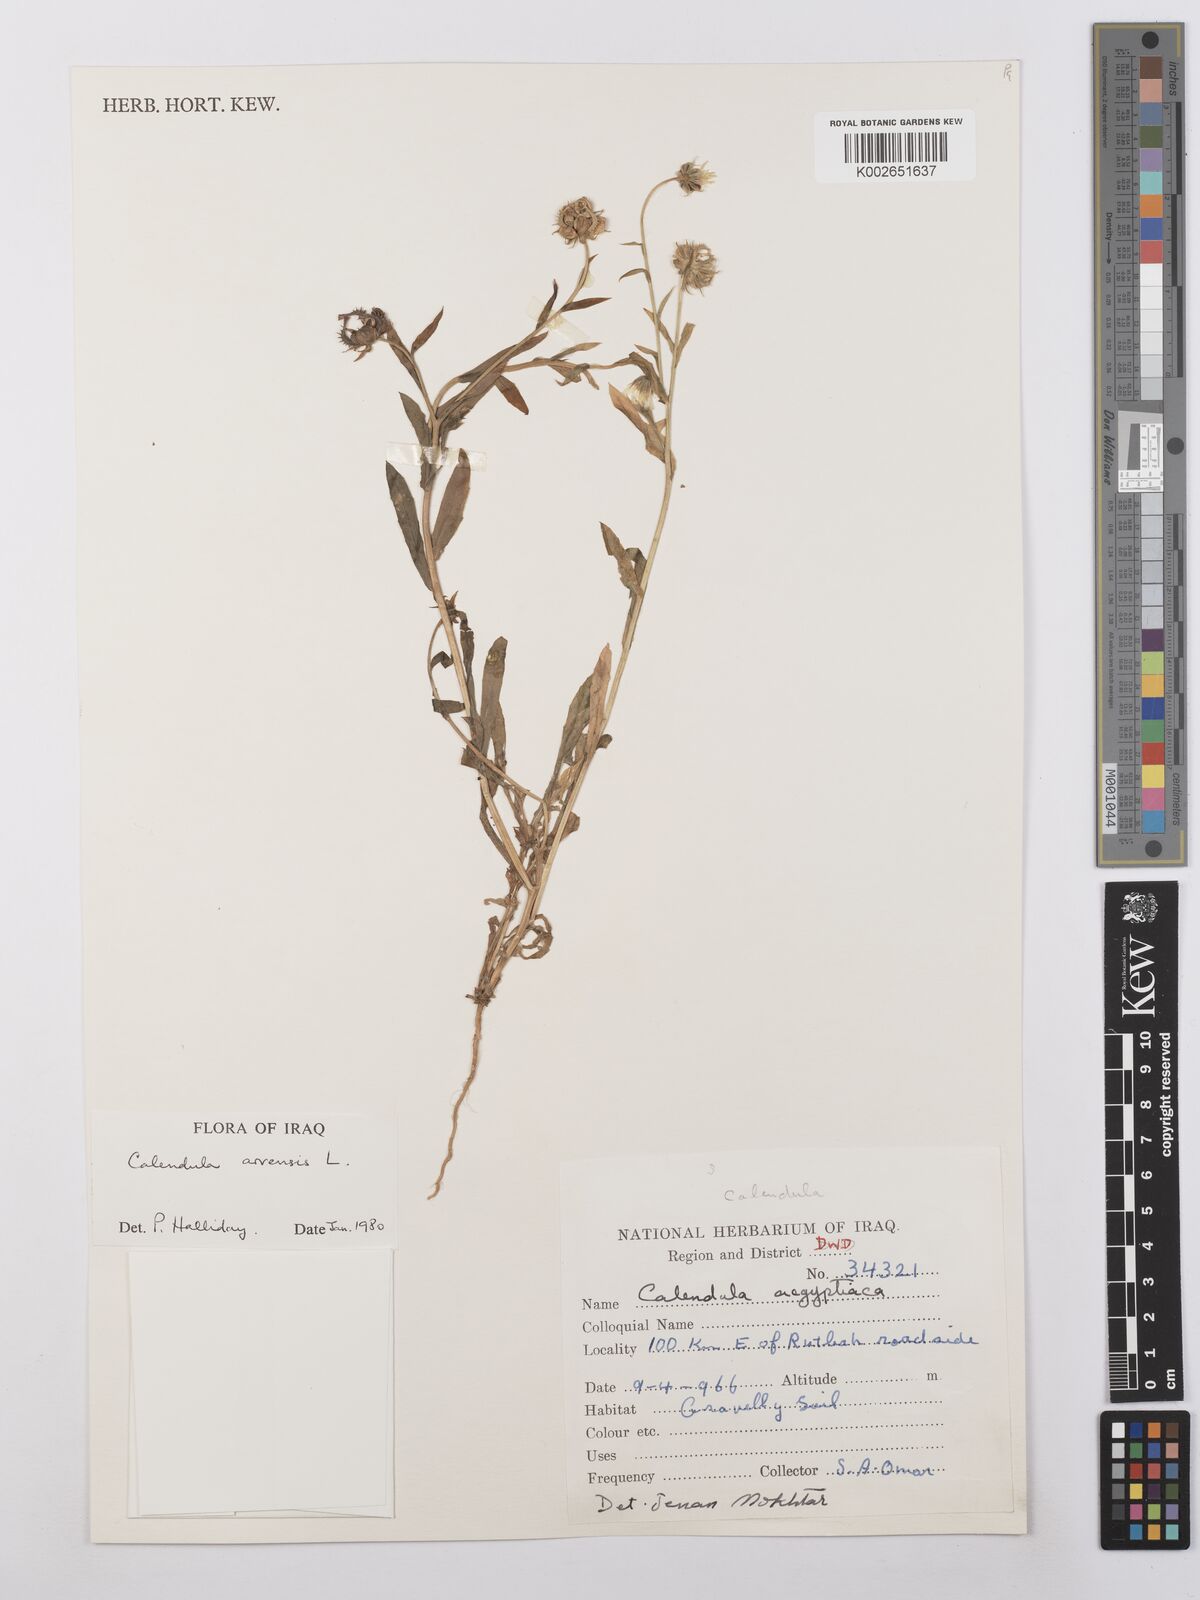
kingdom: Plantae
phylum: Tracheophyta
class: Magnoliopsida
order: Asterales
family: Asteraceae
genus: Calendula
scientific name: Calendula arvensis
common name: Field marigold
